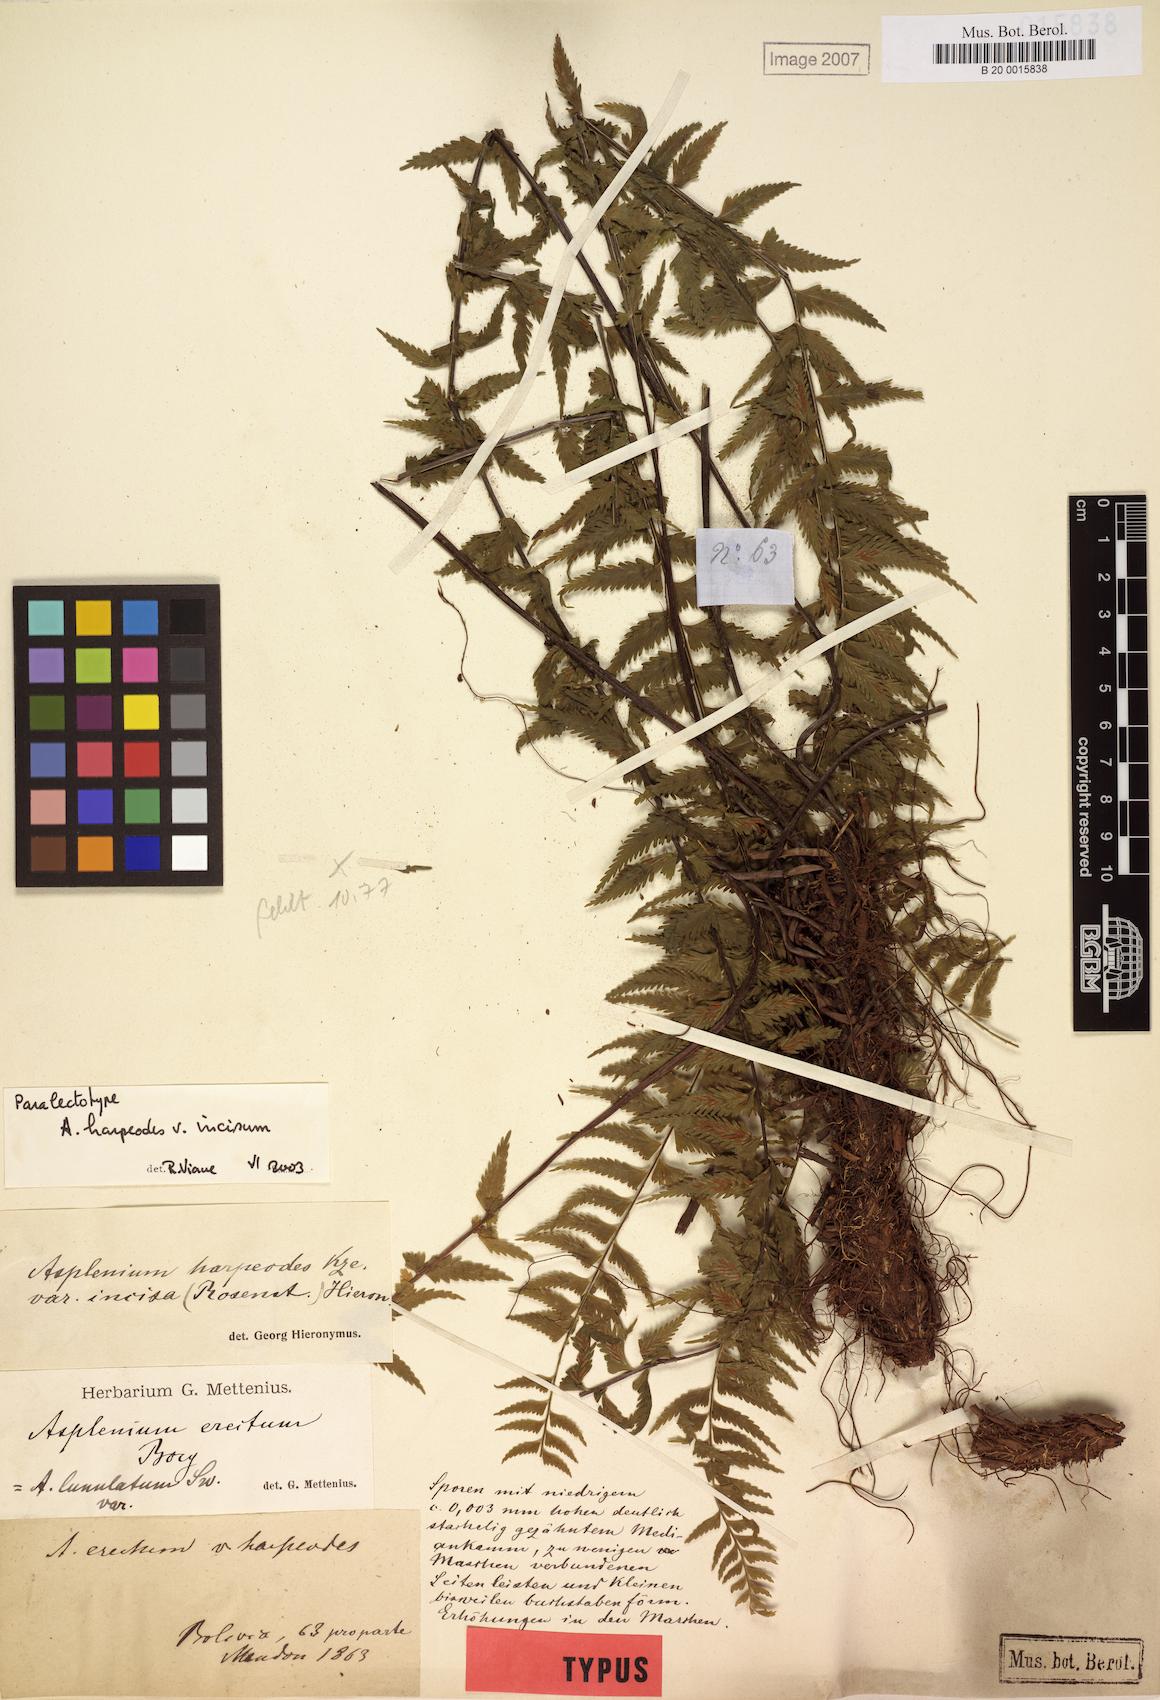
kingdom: Plantae
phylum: Tracheophyta
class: Polypodiopsida
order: Polypodiales
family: Aspleniaceae
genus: Asplenium
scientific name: Asplenium harpeodes
